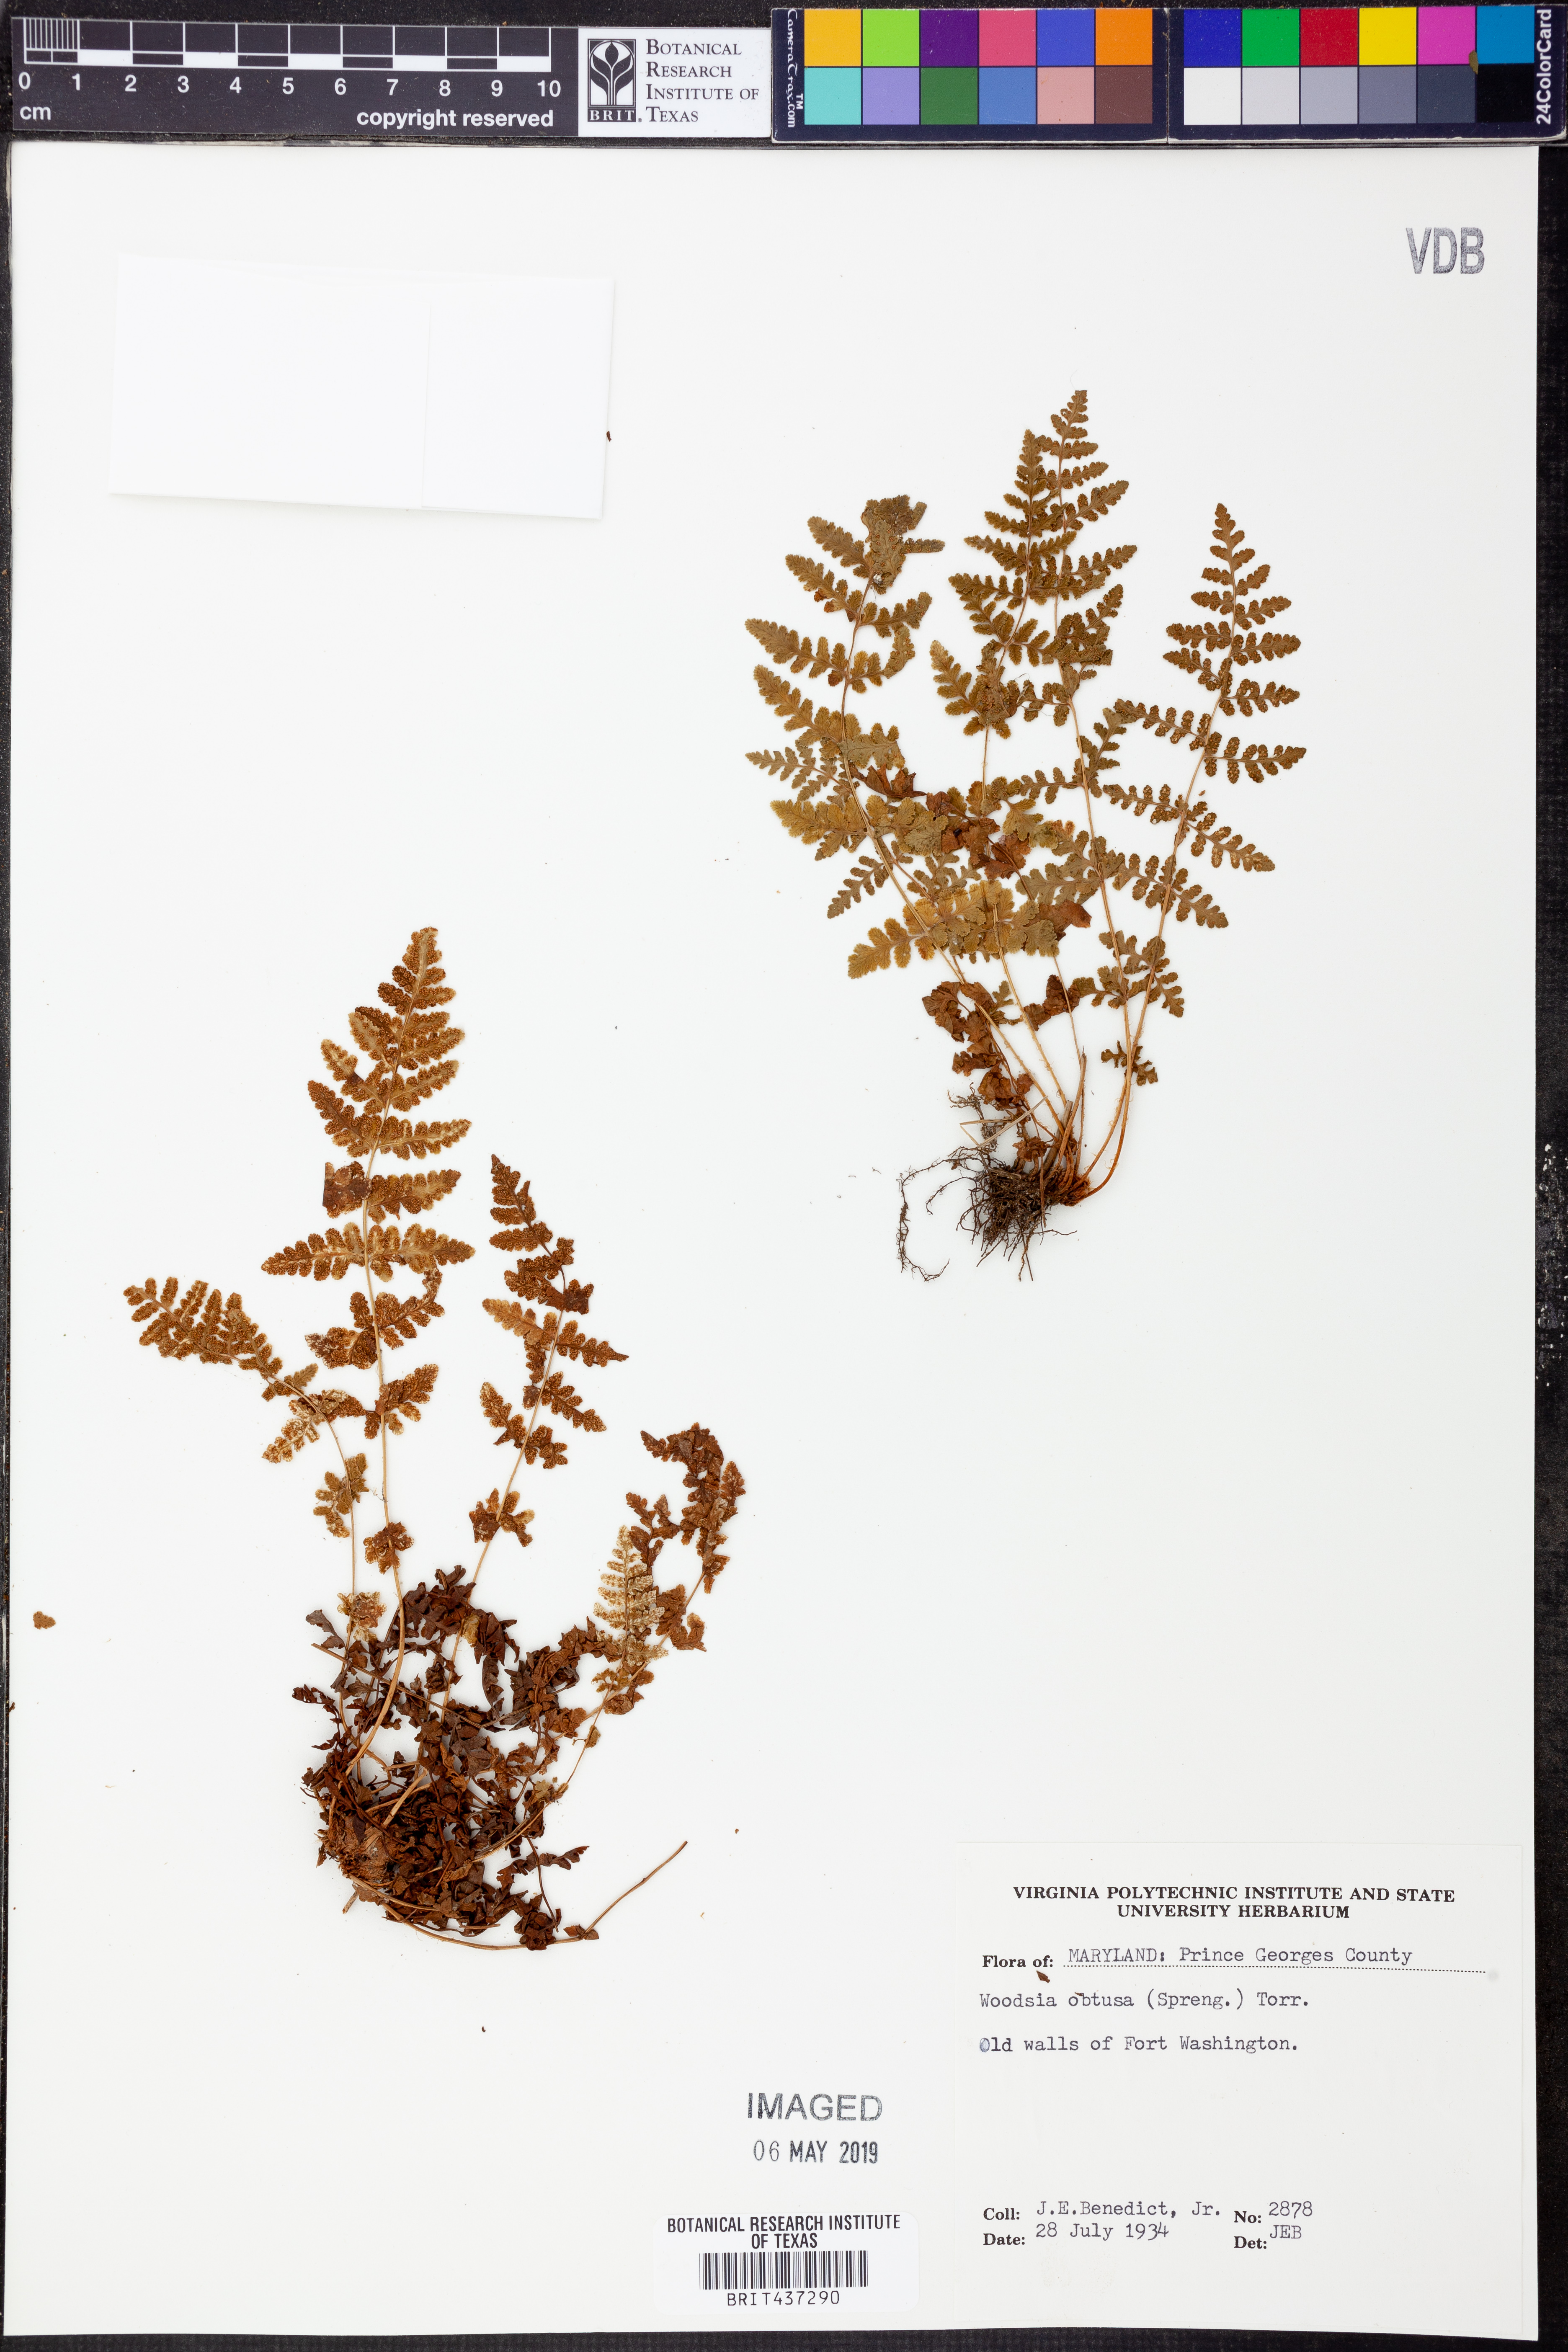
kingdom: Plantae
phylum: Tracheophyta
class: Polypodiopsida
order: Polypodiales
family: Woodsiaceae
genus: Physematium
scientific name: Physematium obtusum
